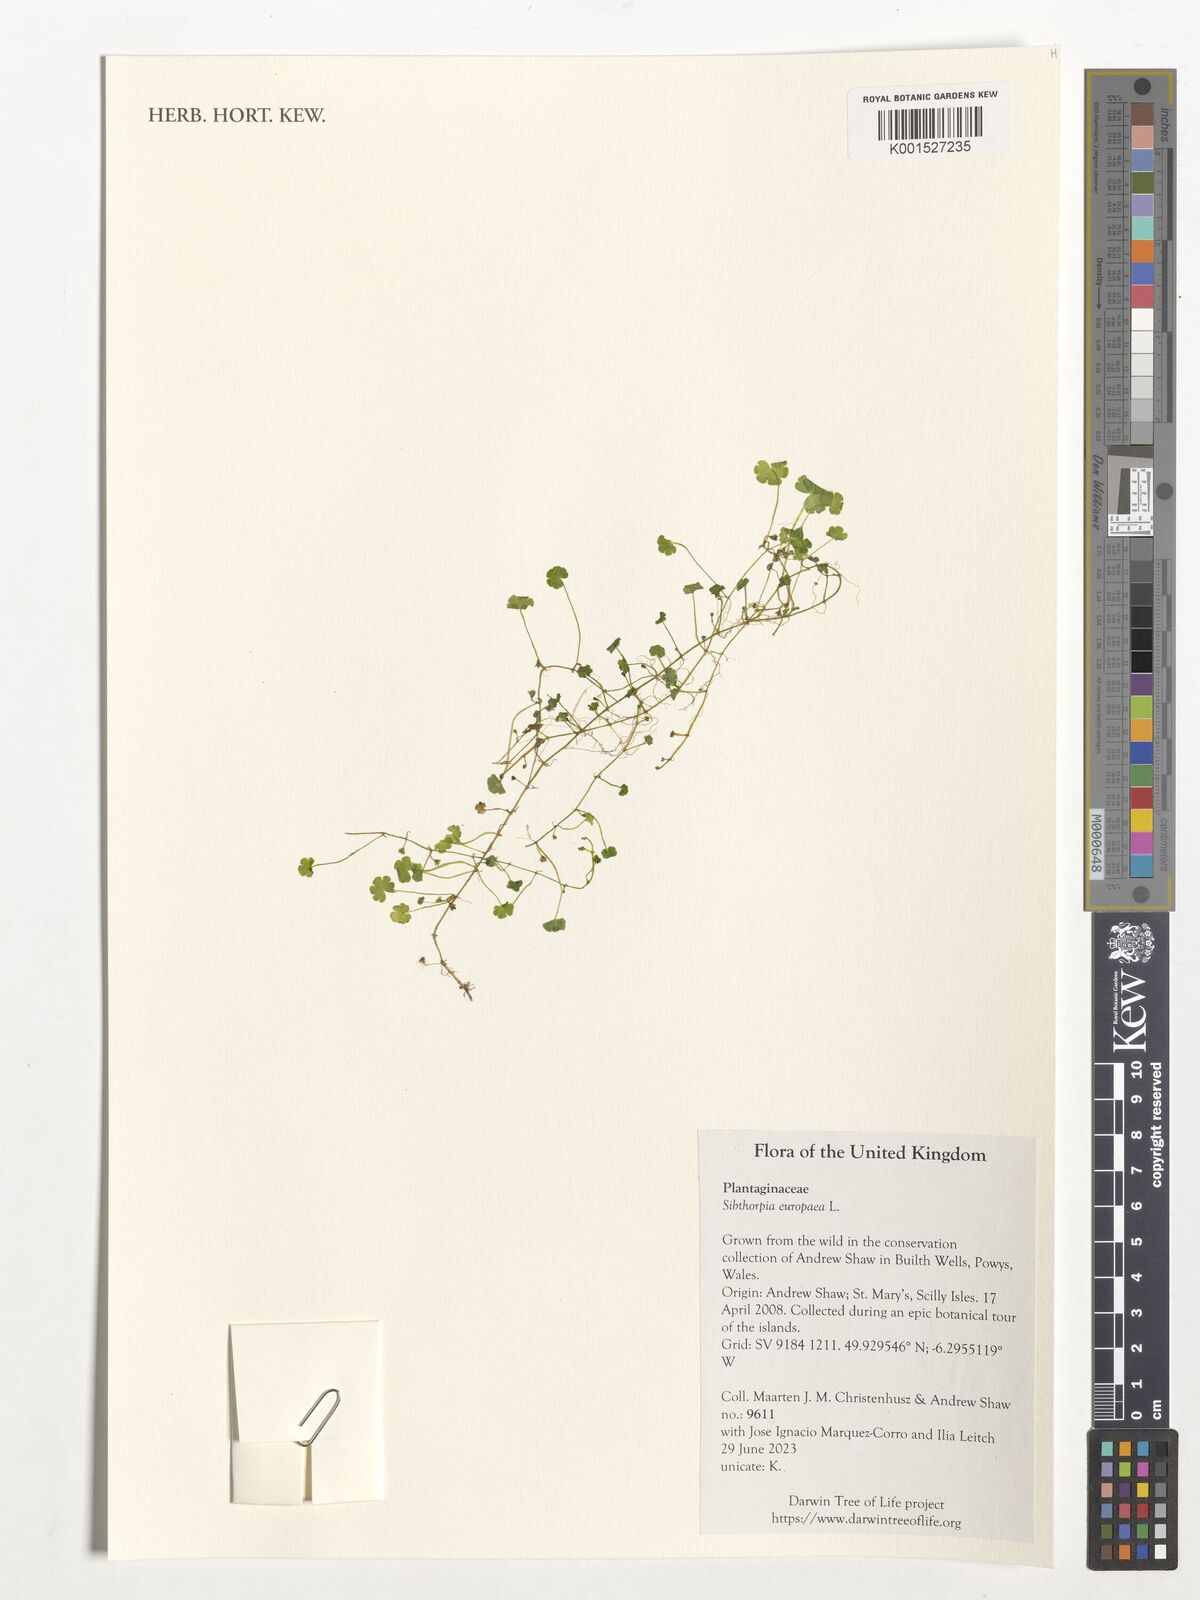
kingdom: Plantae
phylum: Tracheophyta
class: Magnoliopsida
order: Lamiales
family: Plantaginaceae
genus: Sibthorpia
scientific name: Sibthorpia europaea
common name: Cornish moneywort
